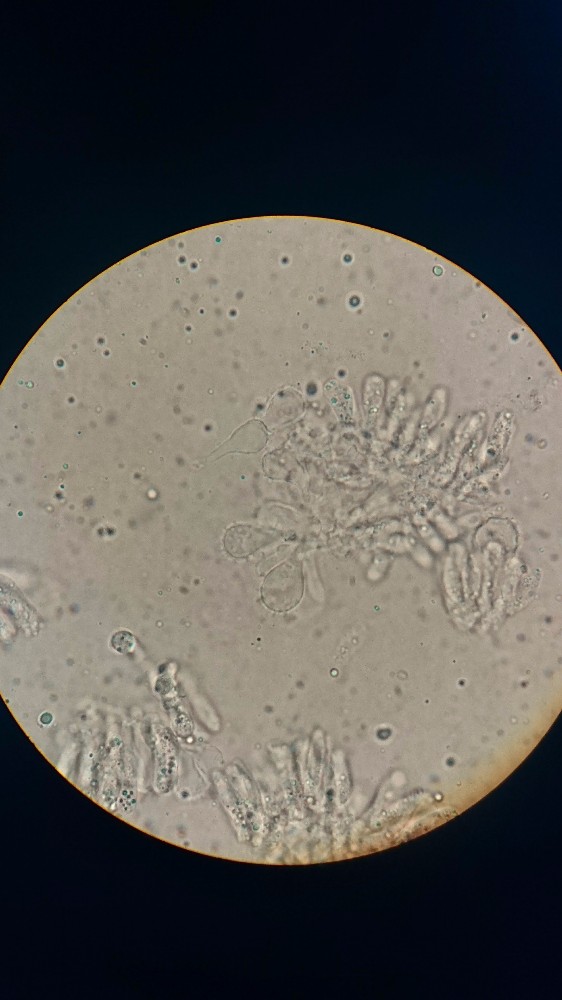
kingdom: Fungi
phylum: Basidiomycota
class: Agaricomycetes
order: Agaricales
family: Mycenaceae
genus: Mycena
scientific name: Mycena metata
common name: rødlig huesvamp
